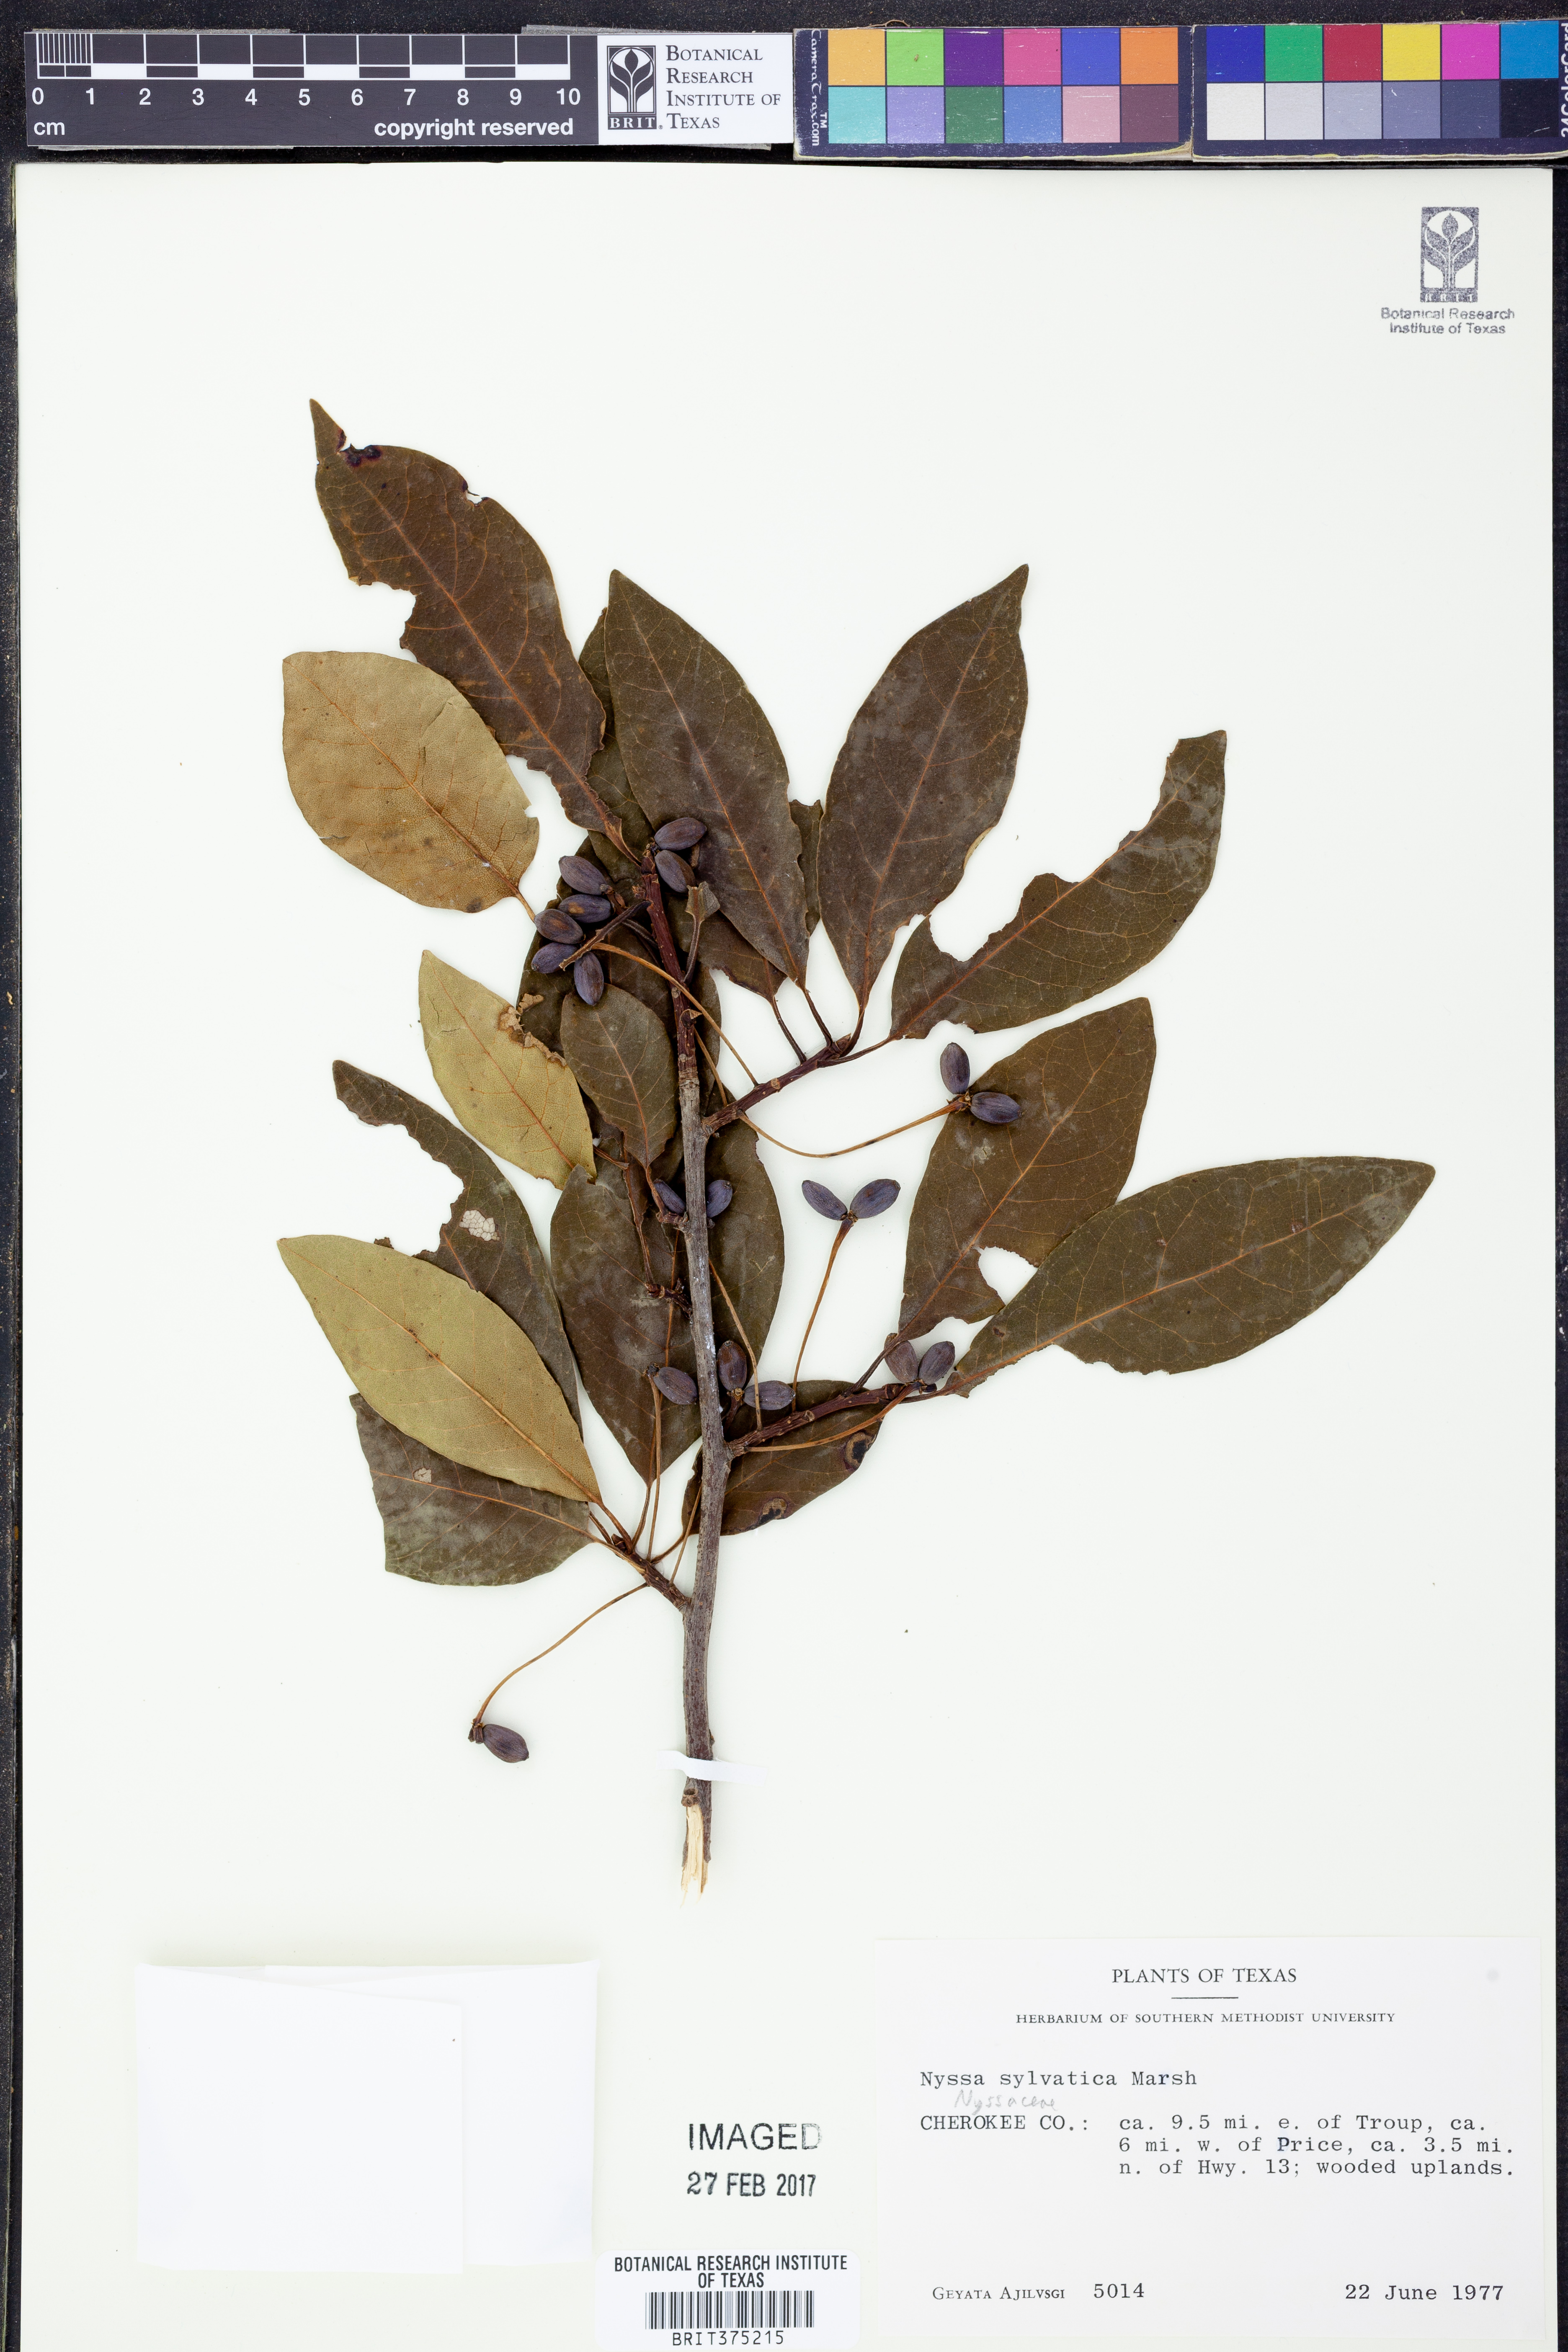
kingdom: Plantae
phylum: Tracheophyta
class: Magnoliopsida
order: Cornales
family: Nyssaceae
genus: Nyssa
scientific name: Nyssa sylvatica
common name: Black tupelo
